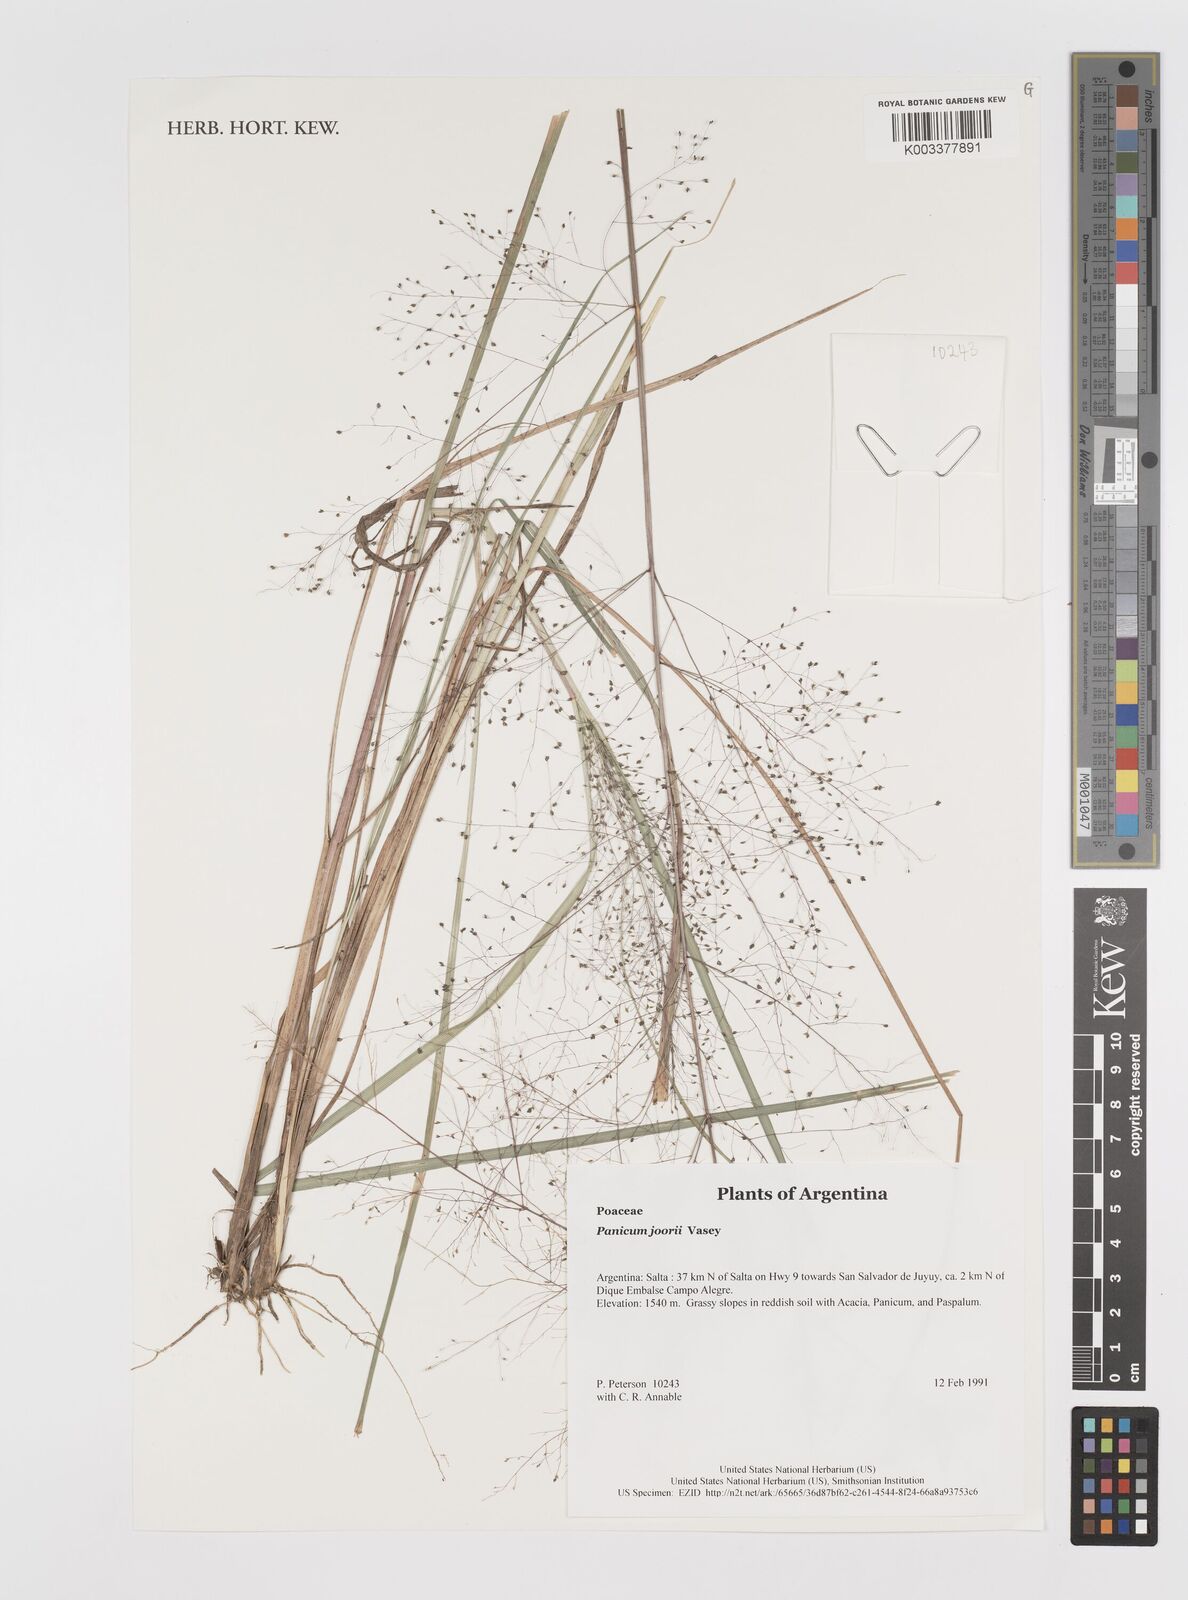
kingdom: Plantae
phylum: Tracheophyta
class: Liliopsida
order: Poales
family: Poaceae
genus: Dichanthelium
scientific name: Dichanthelium commutatum
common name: Variable witchgrass
